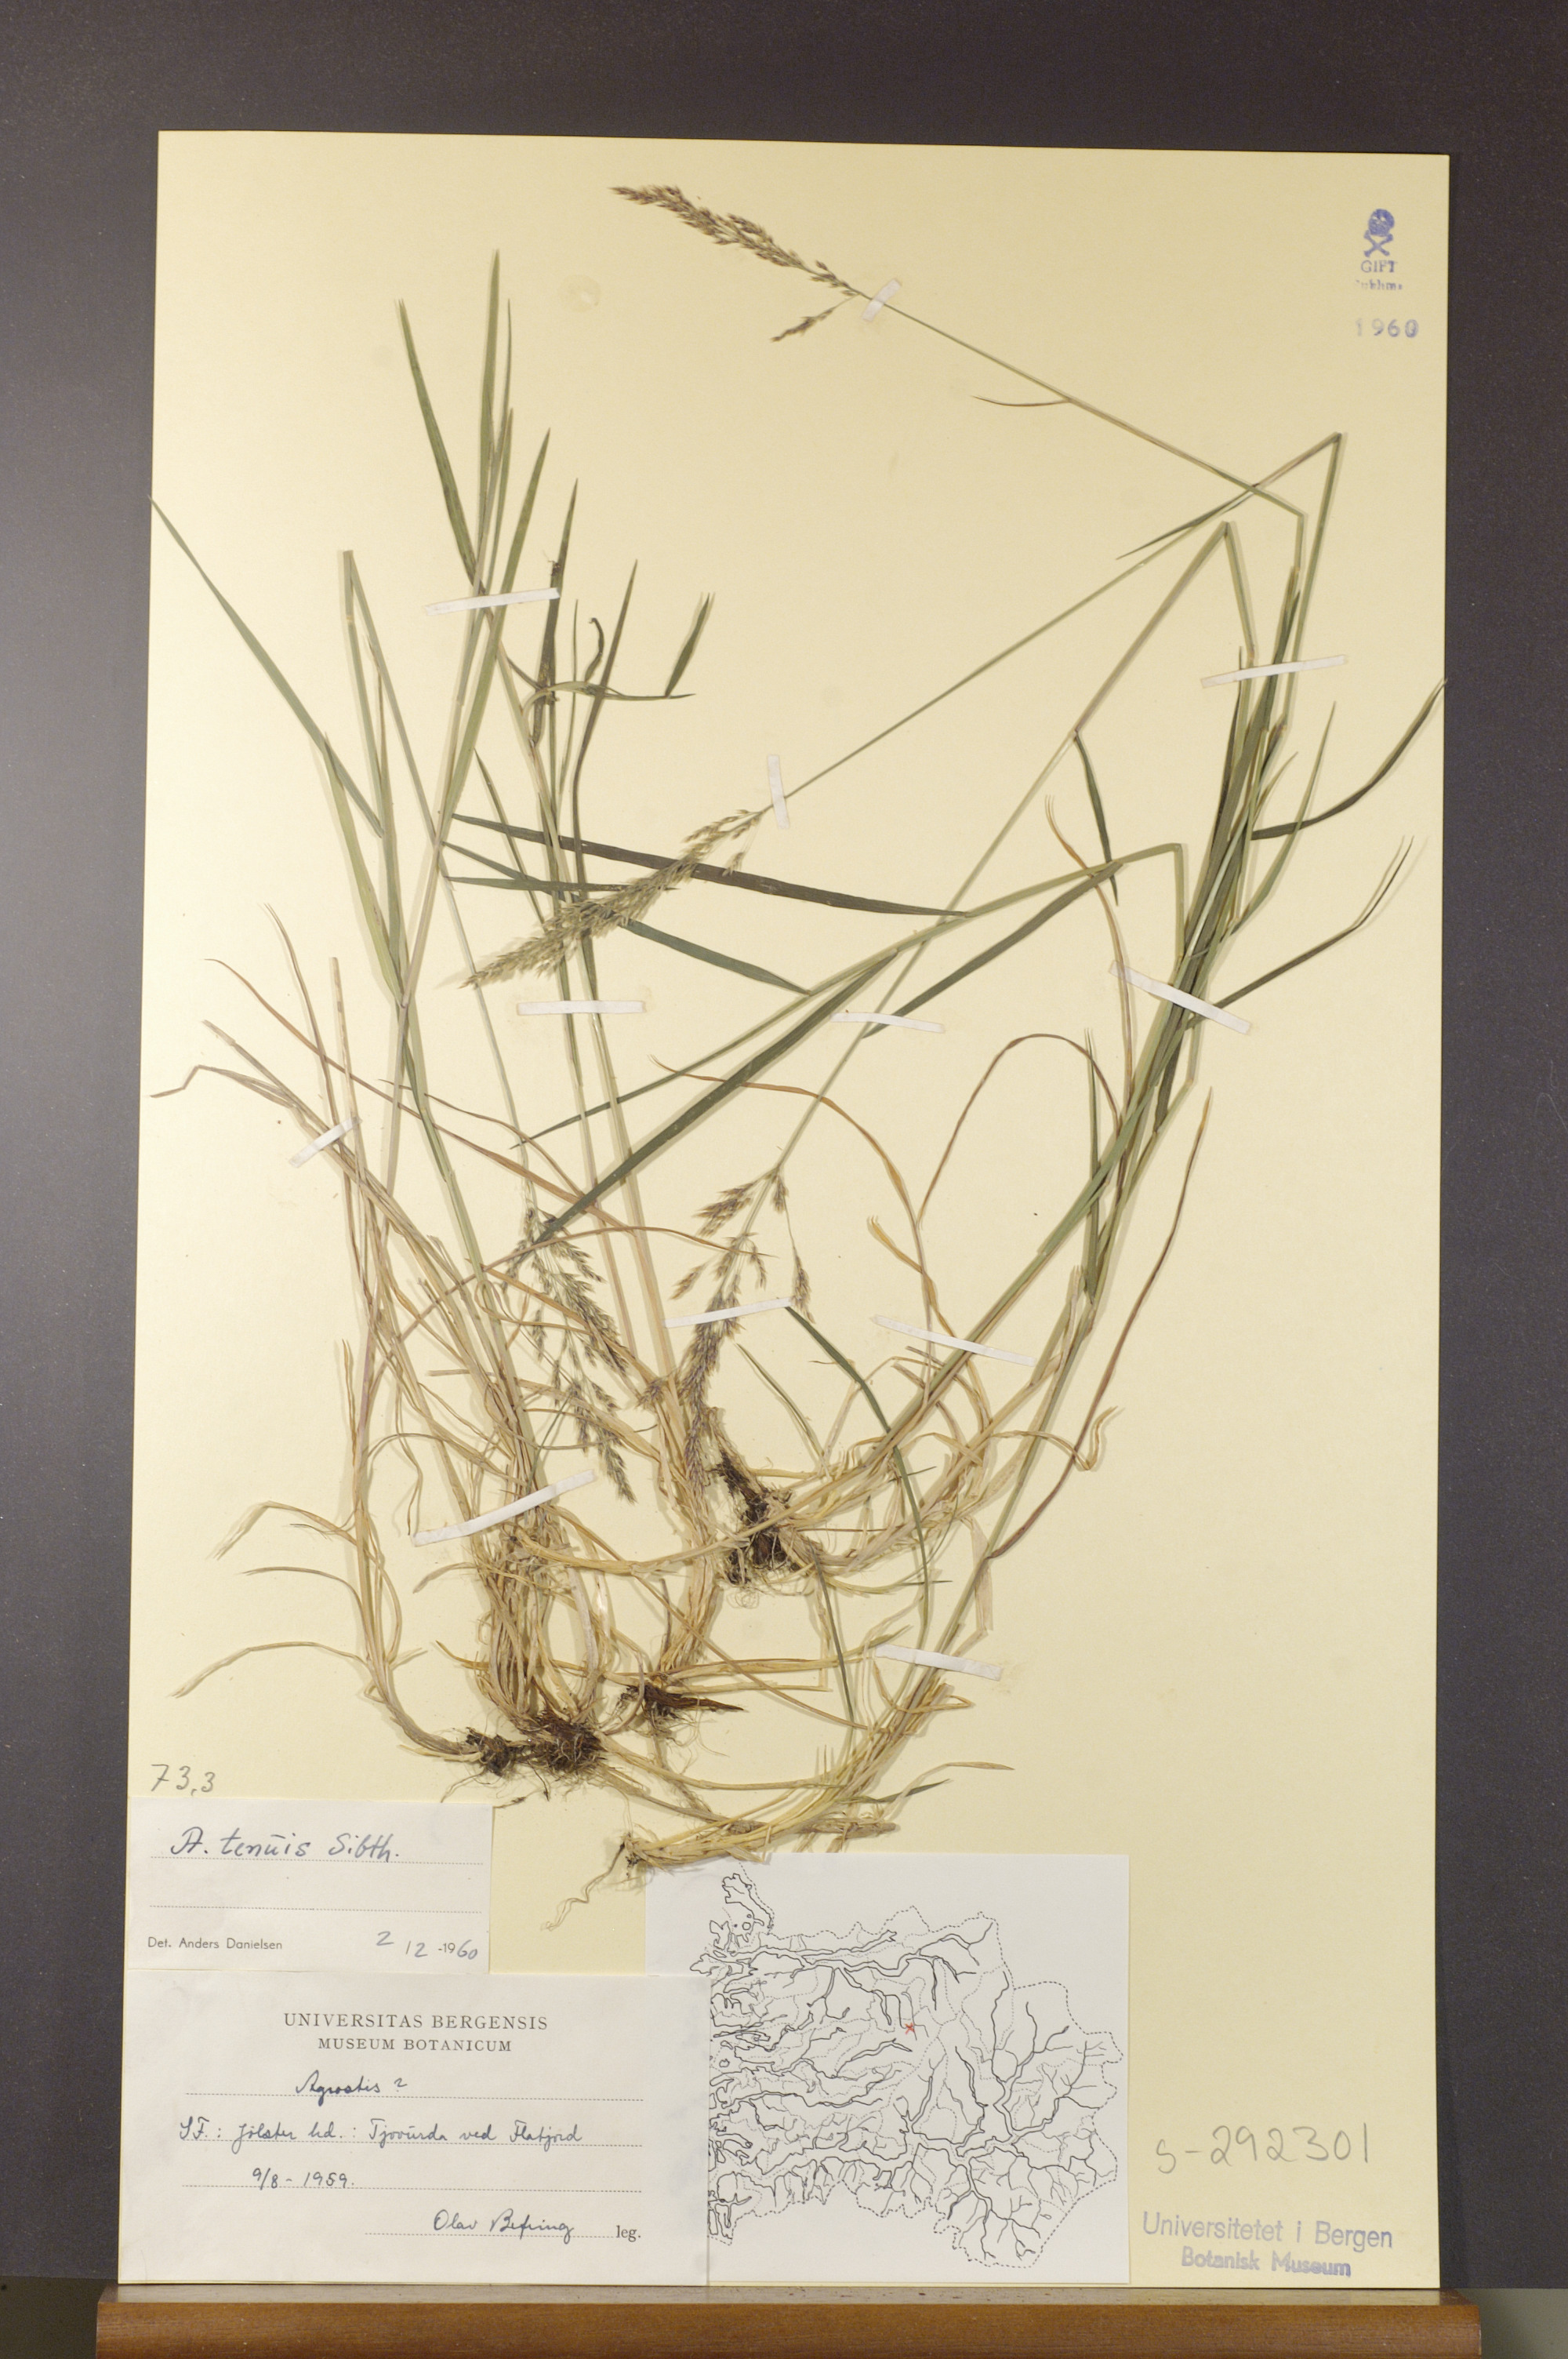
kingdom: Plantae
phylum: Tracheophyta
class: Liliopsida
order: Poales
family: Poaceae
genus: Agrostis
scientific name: Agrostis capillaris
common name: Colonial bentgrass
